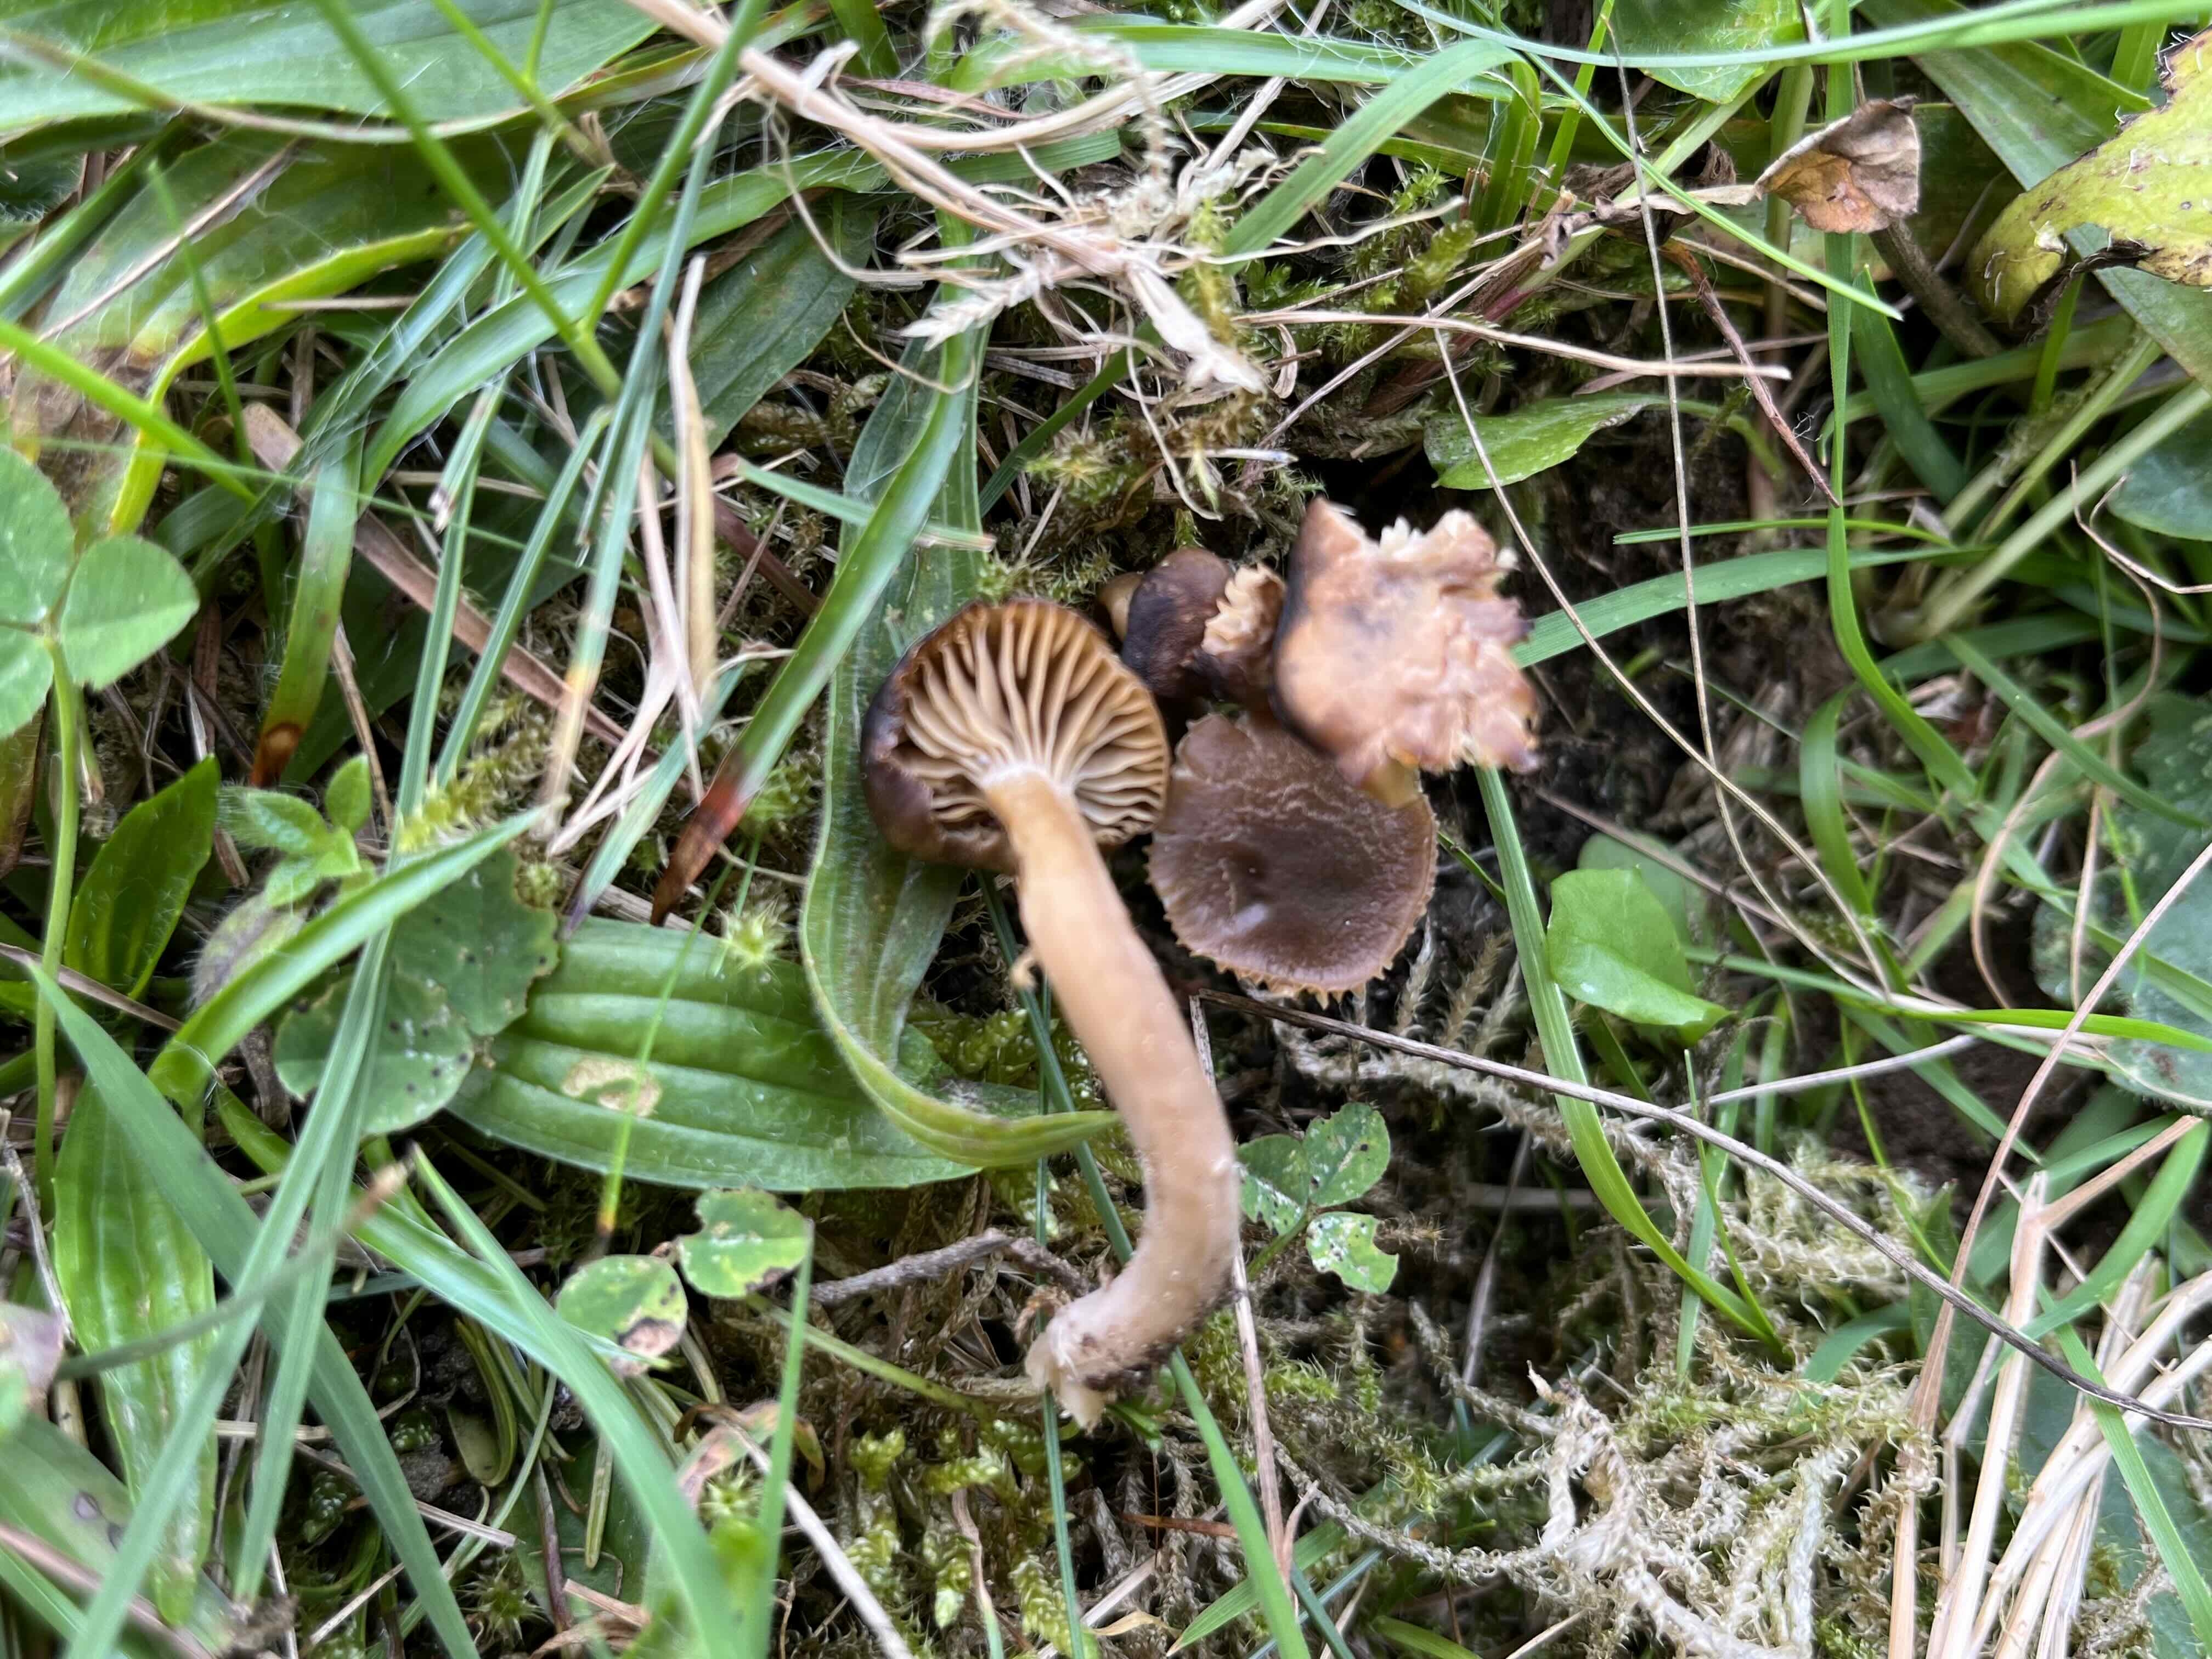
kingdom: Fungi
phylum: Basidiomycota
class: Agaricomycetes
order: Agaricales
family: Clavariaceae
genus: Camarophyllopsis
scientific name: Camarophyllopsis schulzeri
